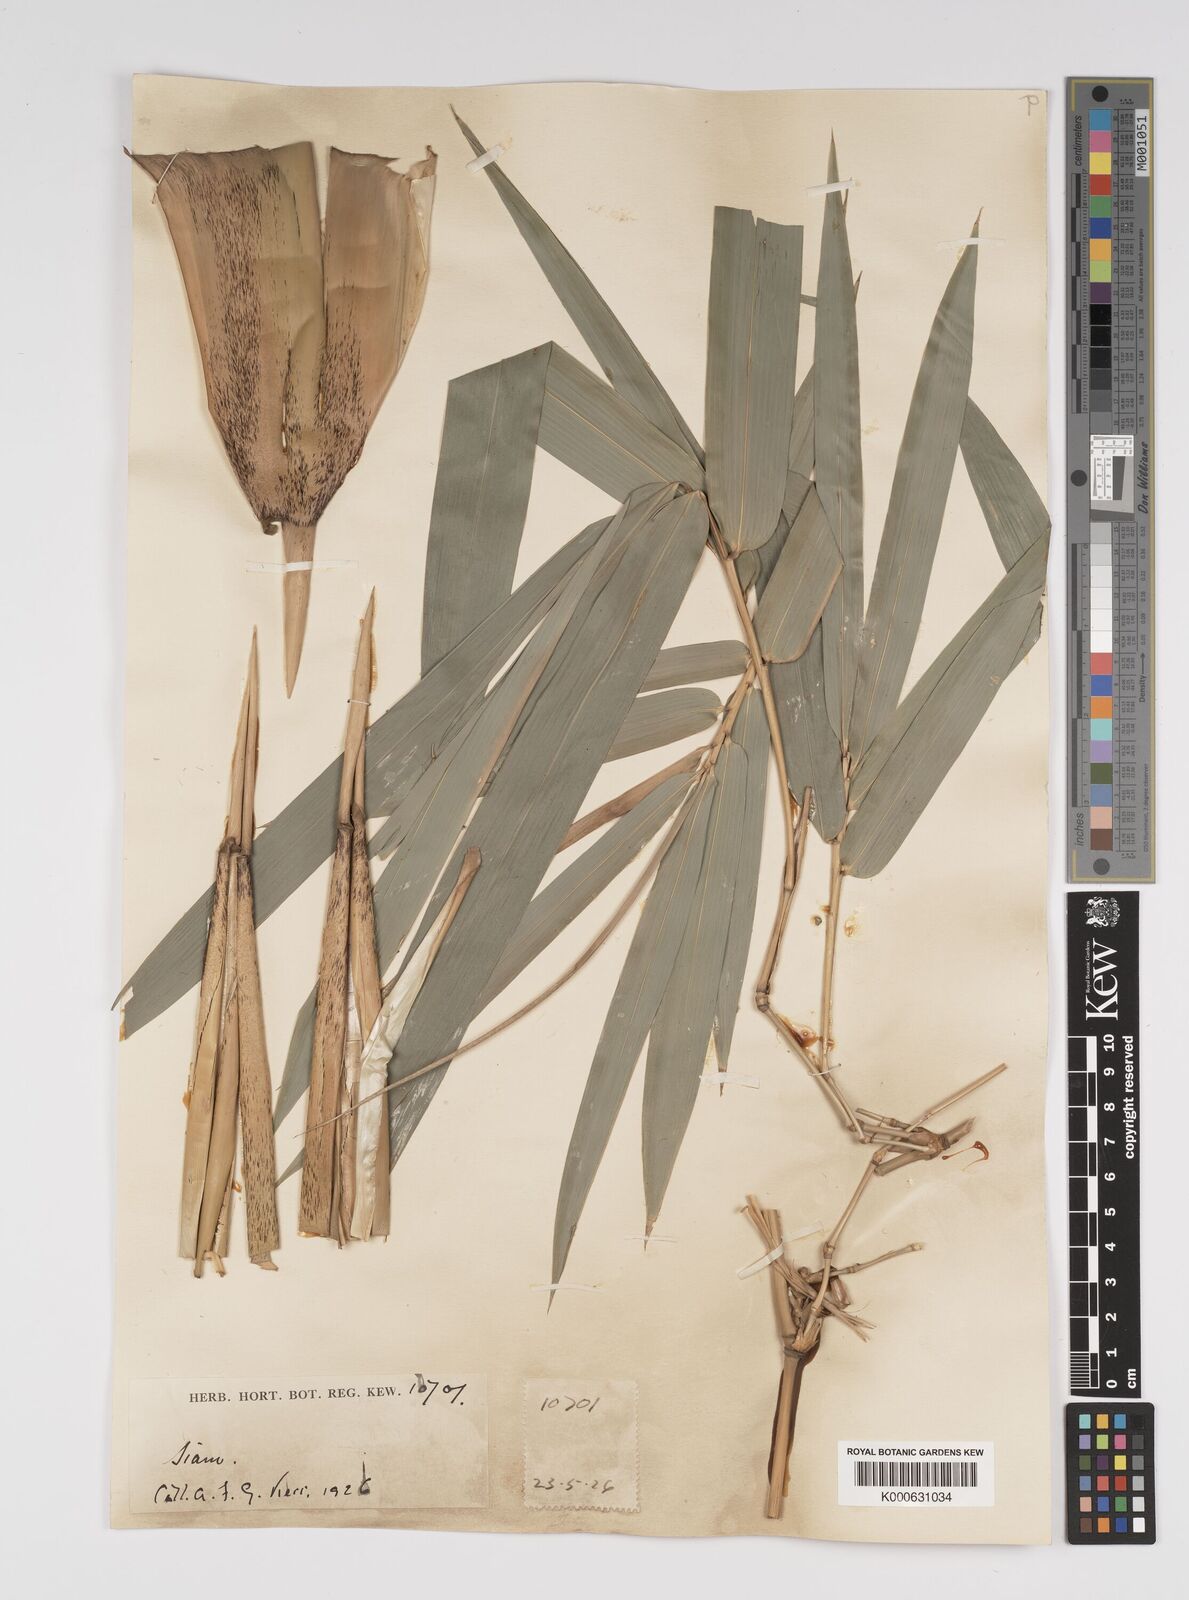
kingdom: Plantae
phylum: Tracheophyta
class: Liliopsida
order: Poales
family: Poaceae
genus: Bambusa
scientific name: Bambusa
